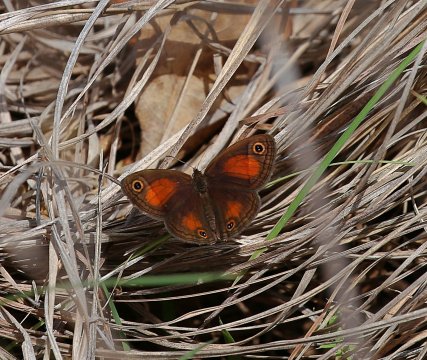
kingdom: Animalia
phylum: Arthropoda
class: Insecta
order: Lepidoptera
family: Nymphalidae
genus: Euptychia
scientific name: Euptychia rubricata
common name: Red Satyr
